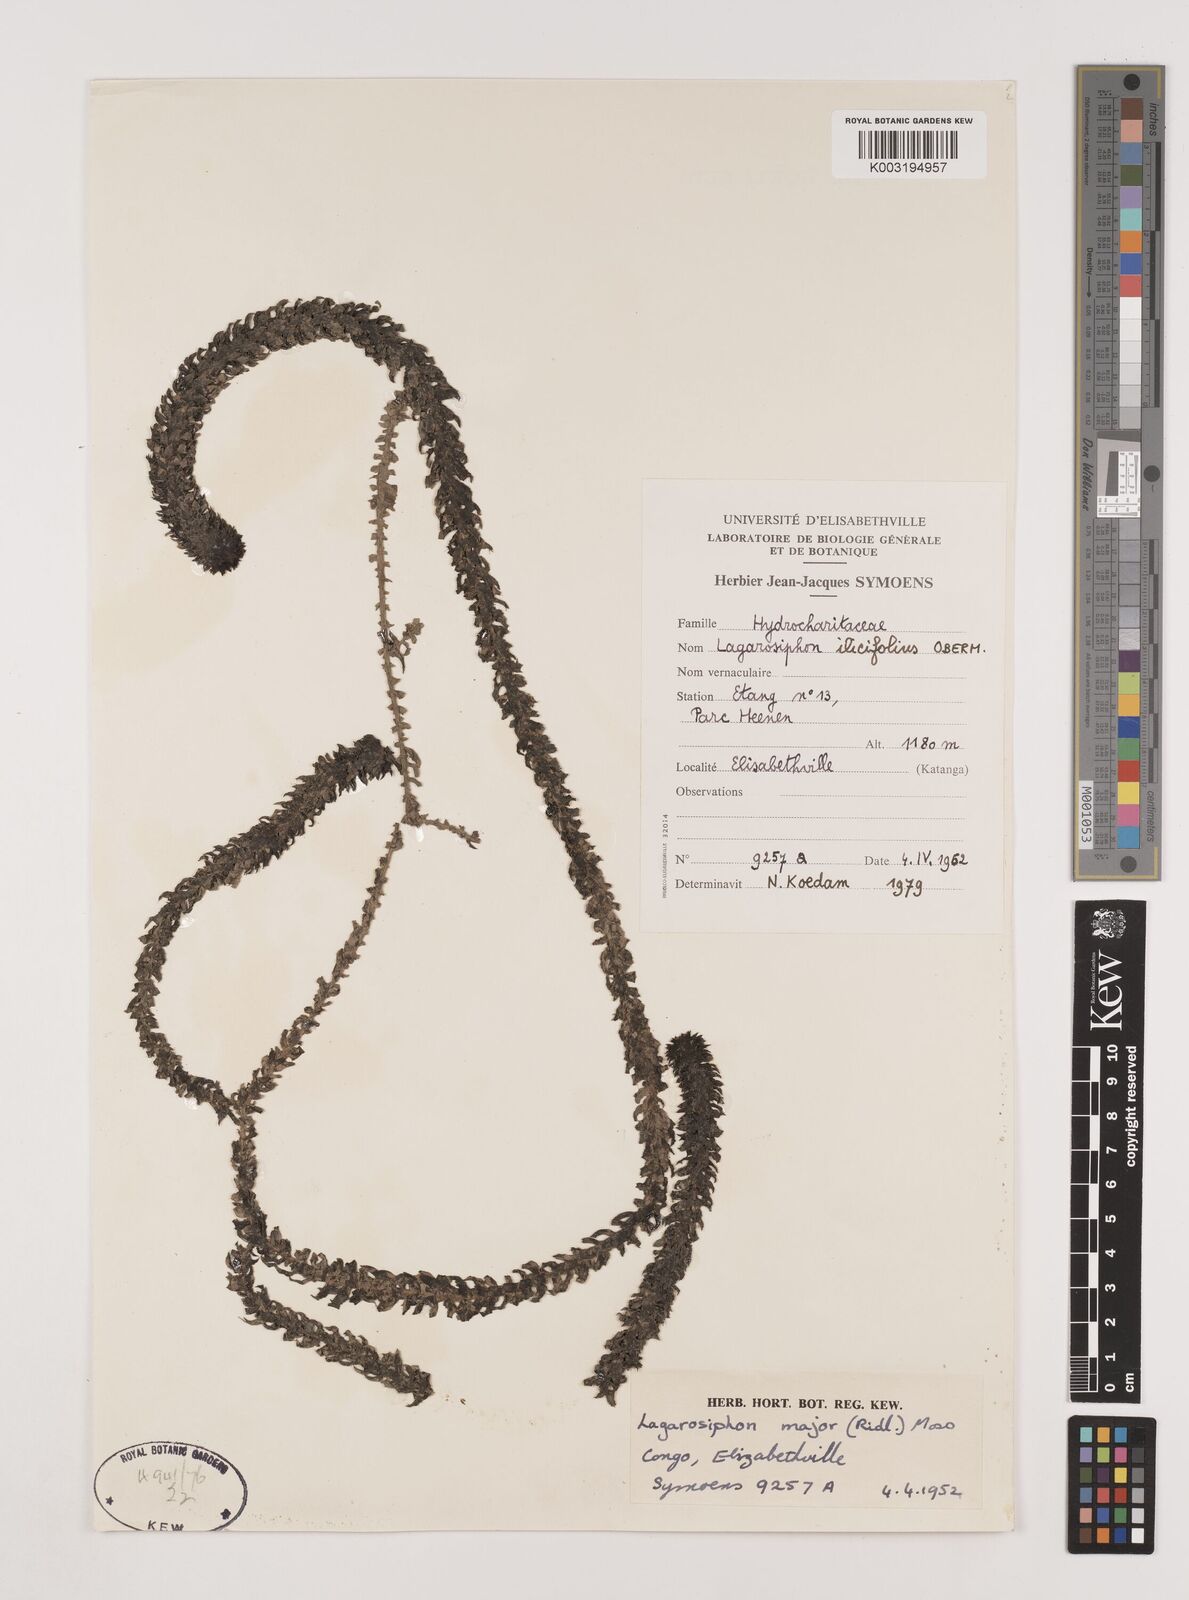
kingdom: Plantae
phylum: Tracheophyta
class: Liliopsida
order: Alismatales
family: Hydrocharitaceae
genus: Lagarosiphon
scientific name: Lagarosiphon ilicifolius
